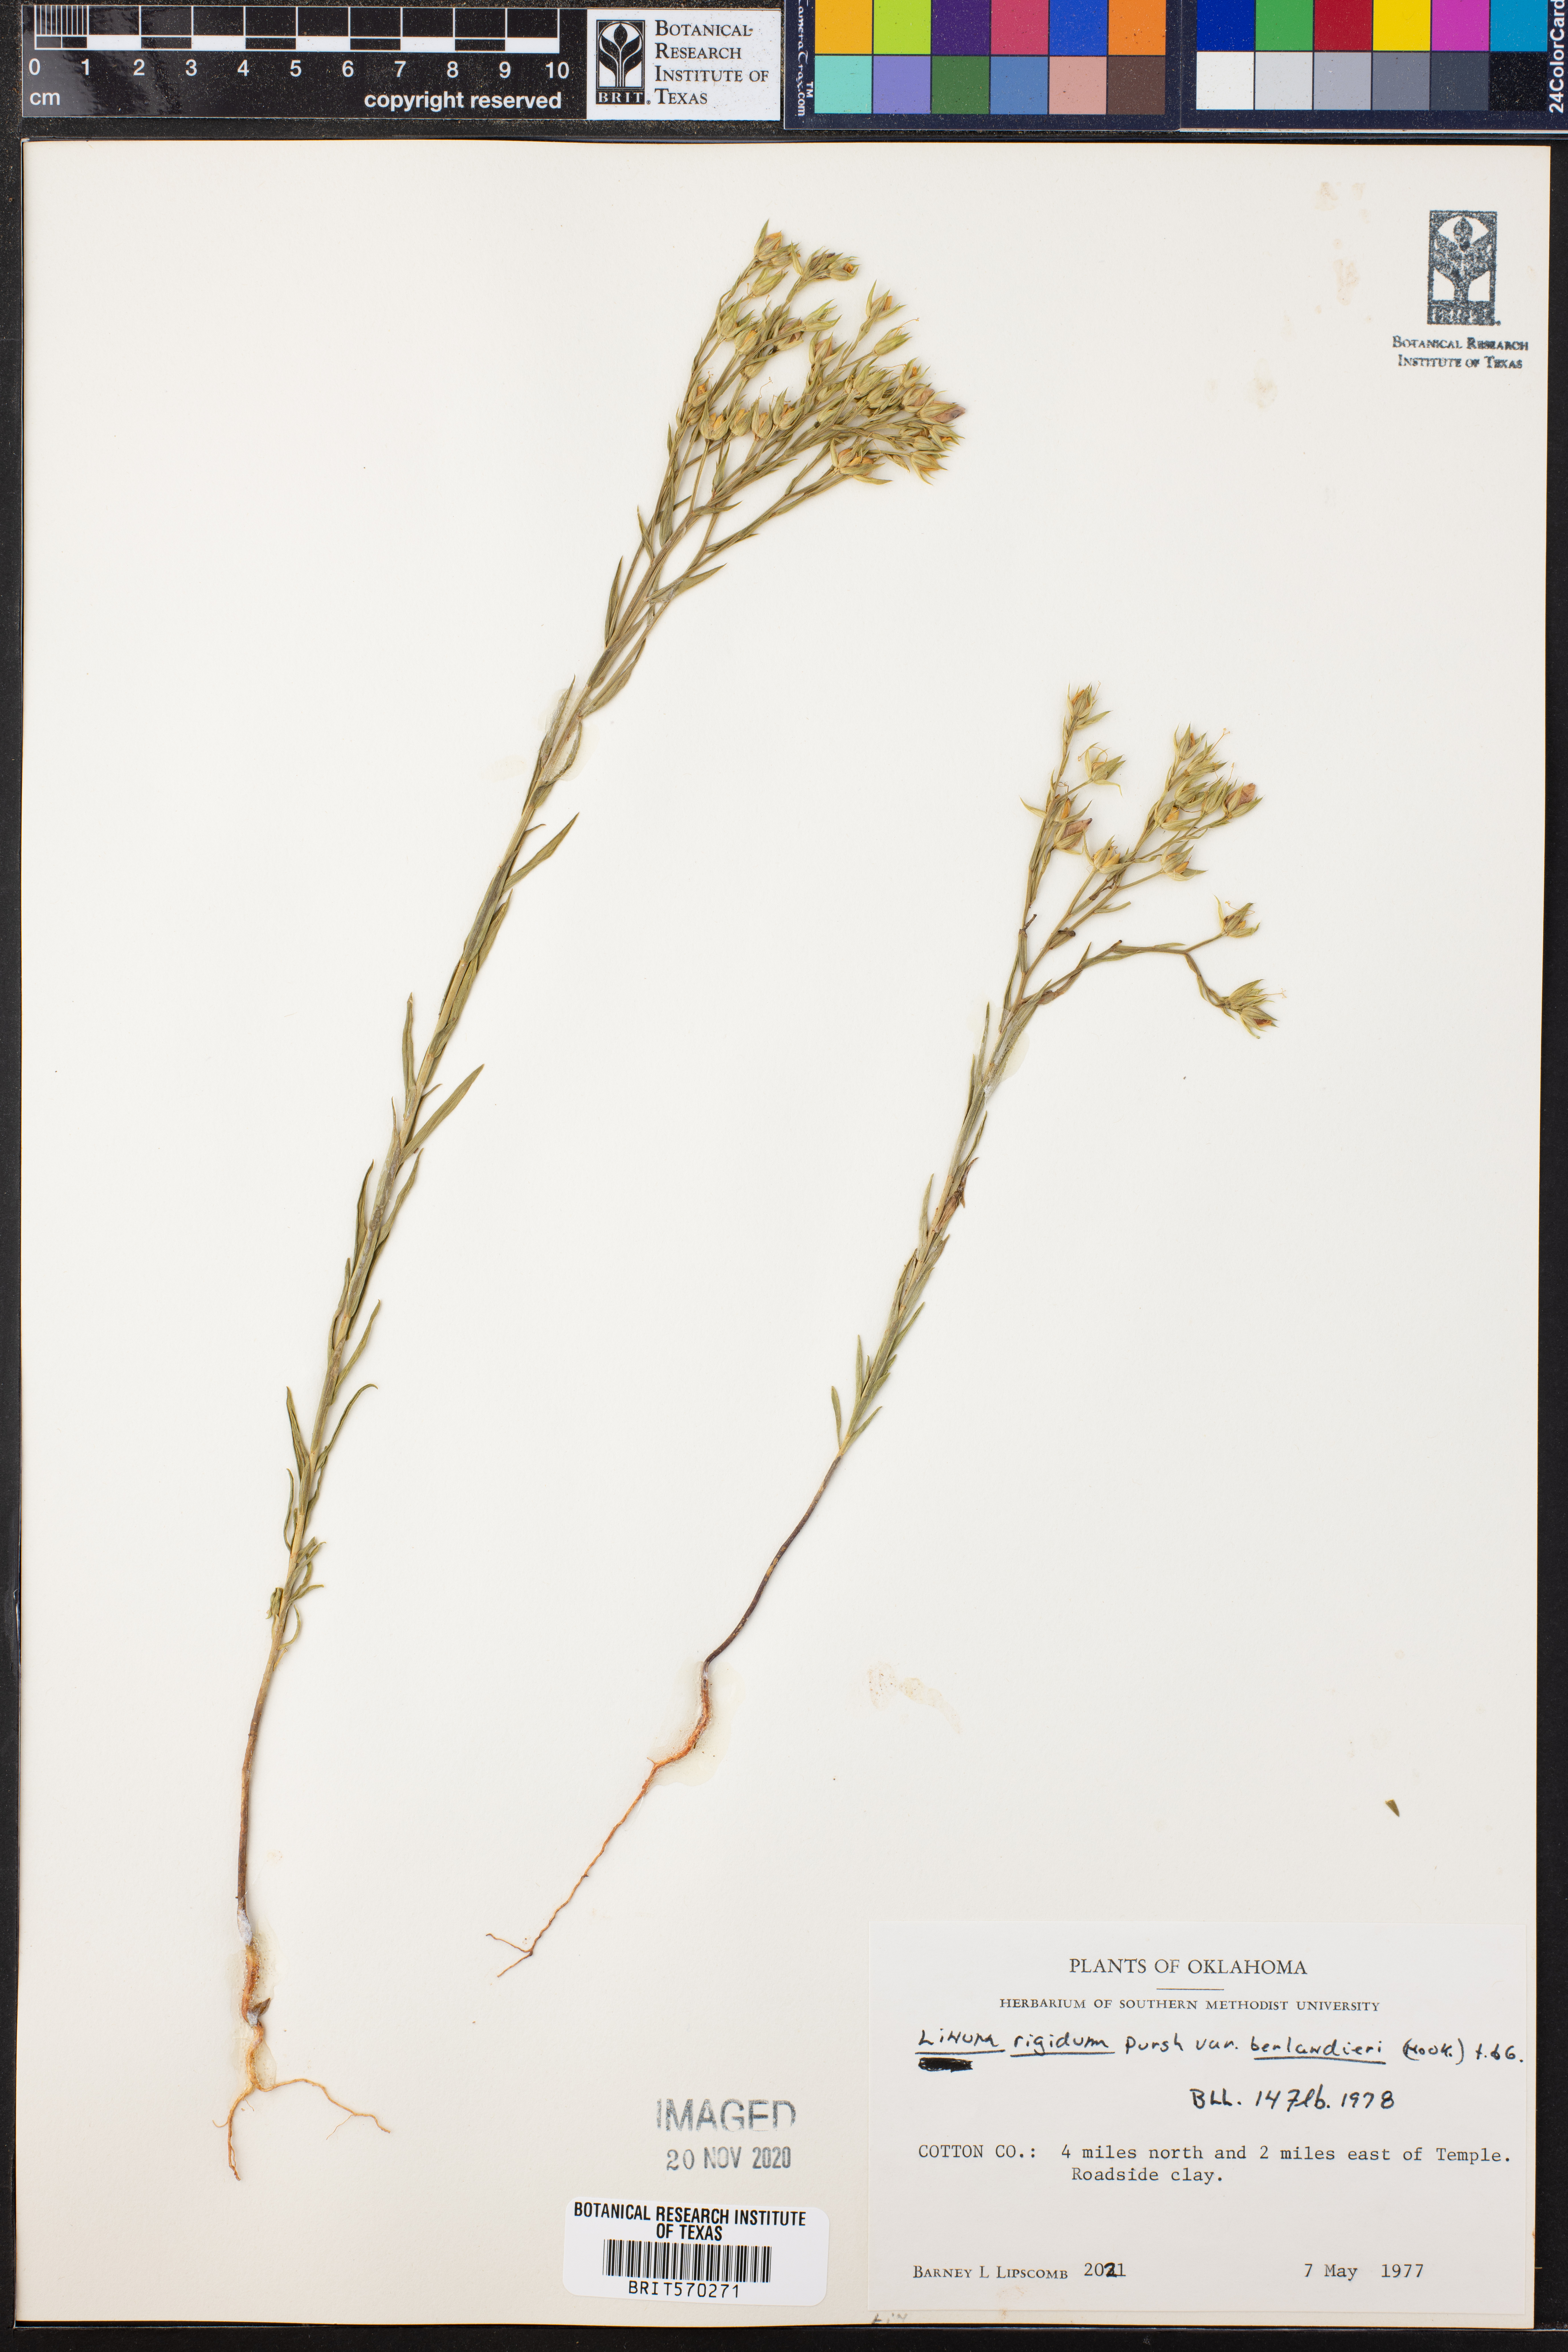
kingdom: Plantae
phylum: Tracheophyta
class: Magnoliopsida
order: Malpighiales
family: Linaceae
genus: Linum
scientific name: Linum berlandieri
